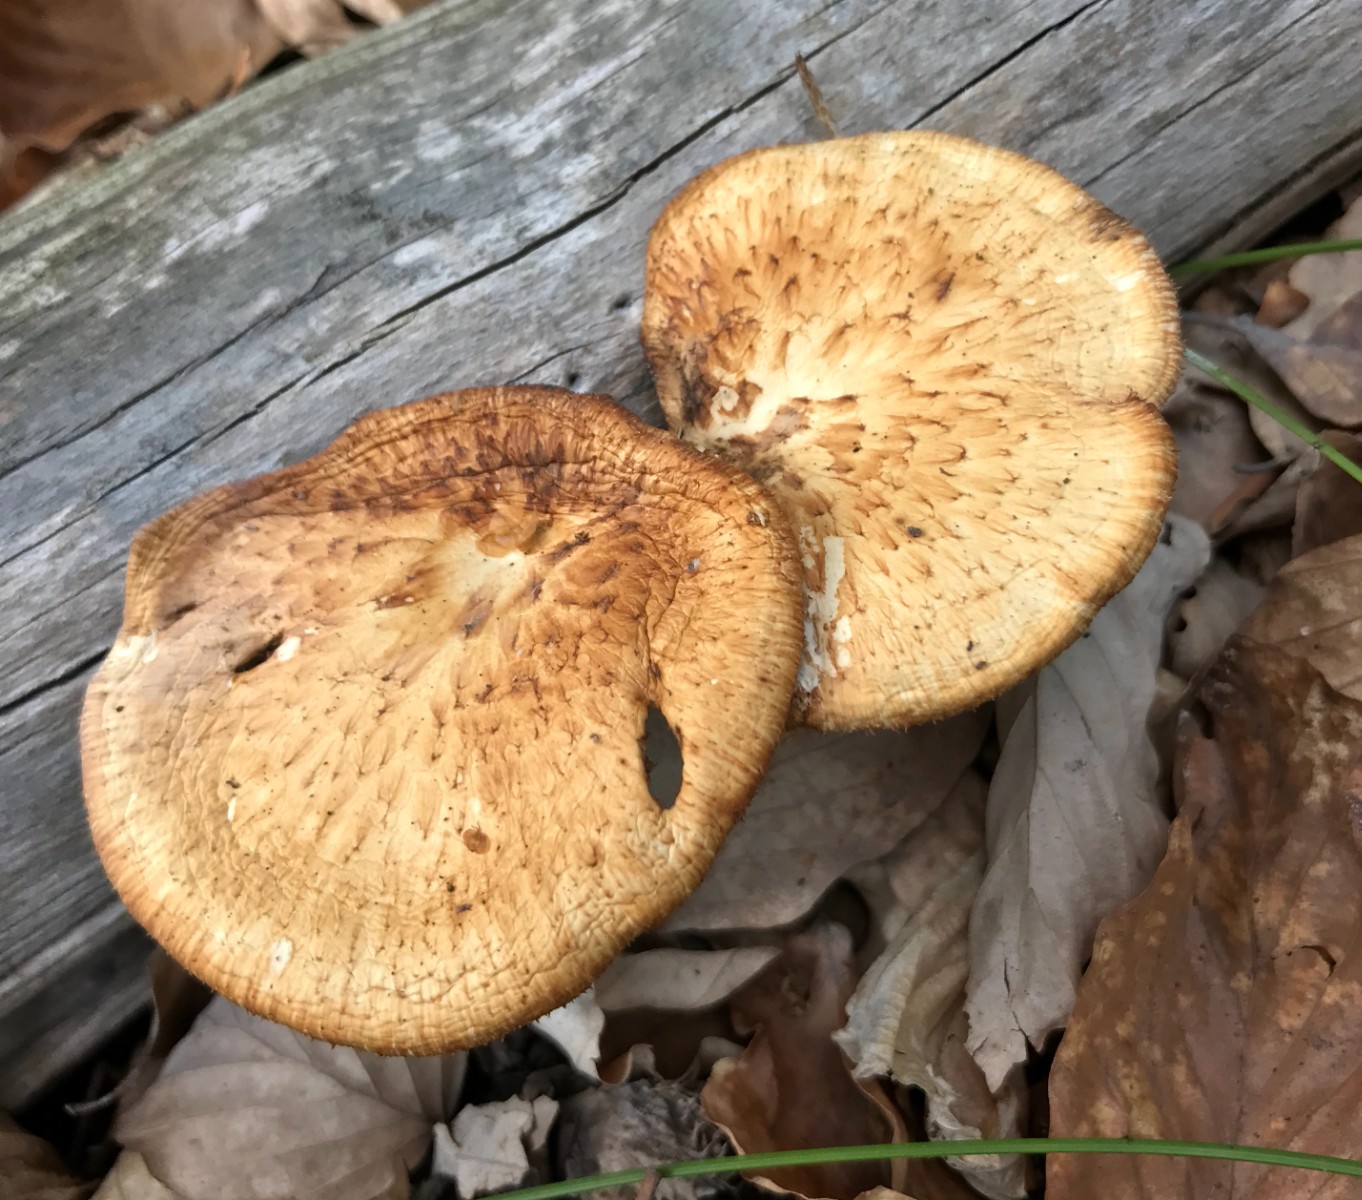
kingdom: Fungi
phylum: Basidiomycota
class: Agaricomycetes
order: Polyporales
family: Polyporaceae
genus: Polyporus
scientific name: Polyporus tuberaster
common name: knoldet stilkporesvamp
